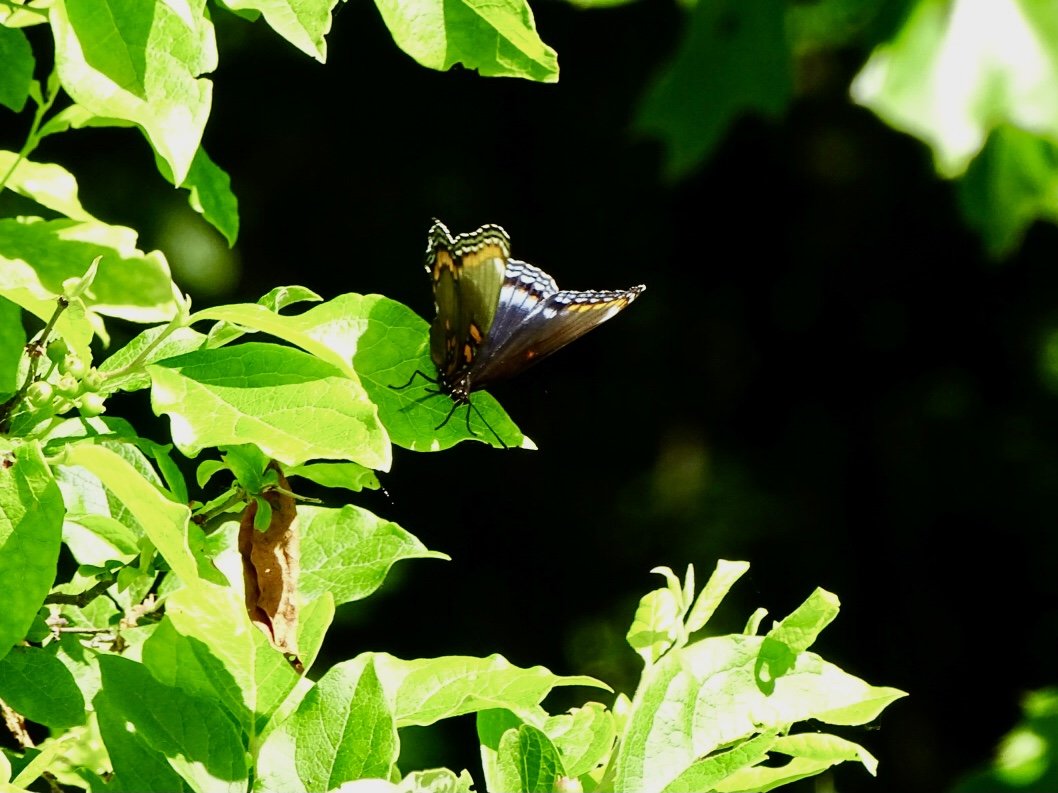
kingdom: Animalia
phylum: Arthropoda
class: Insecta
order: Lepidoptera
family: Nymphalidae
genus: Limenitis
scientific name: Limenitis arthemis
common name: Red-spotted Admiral
